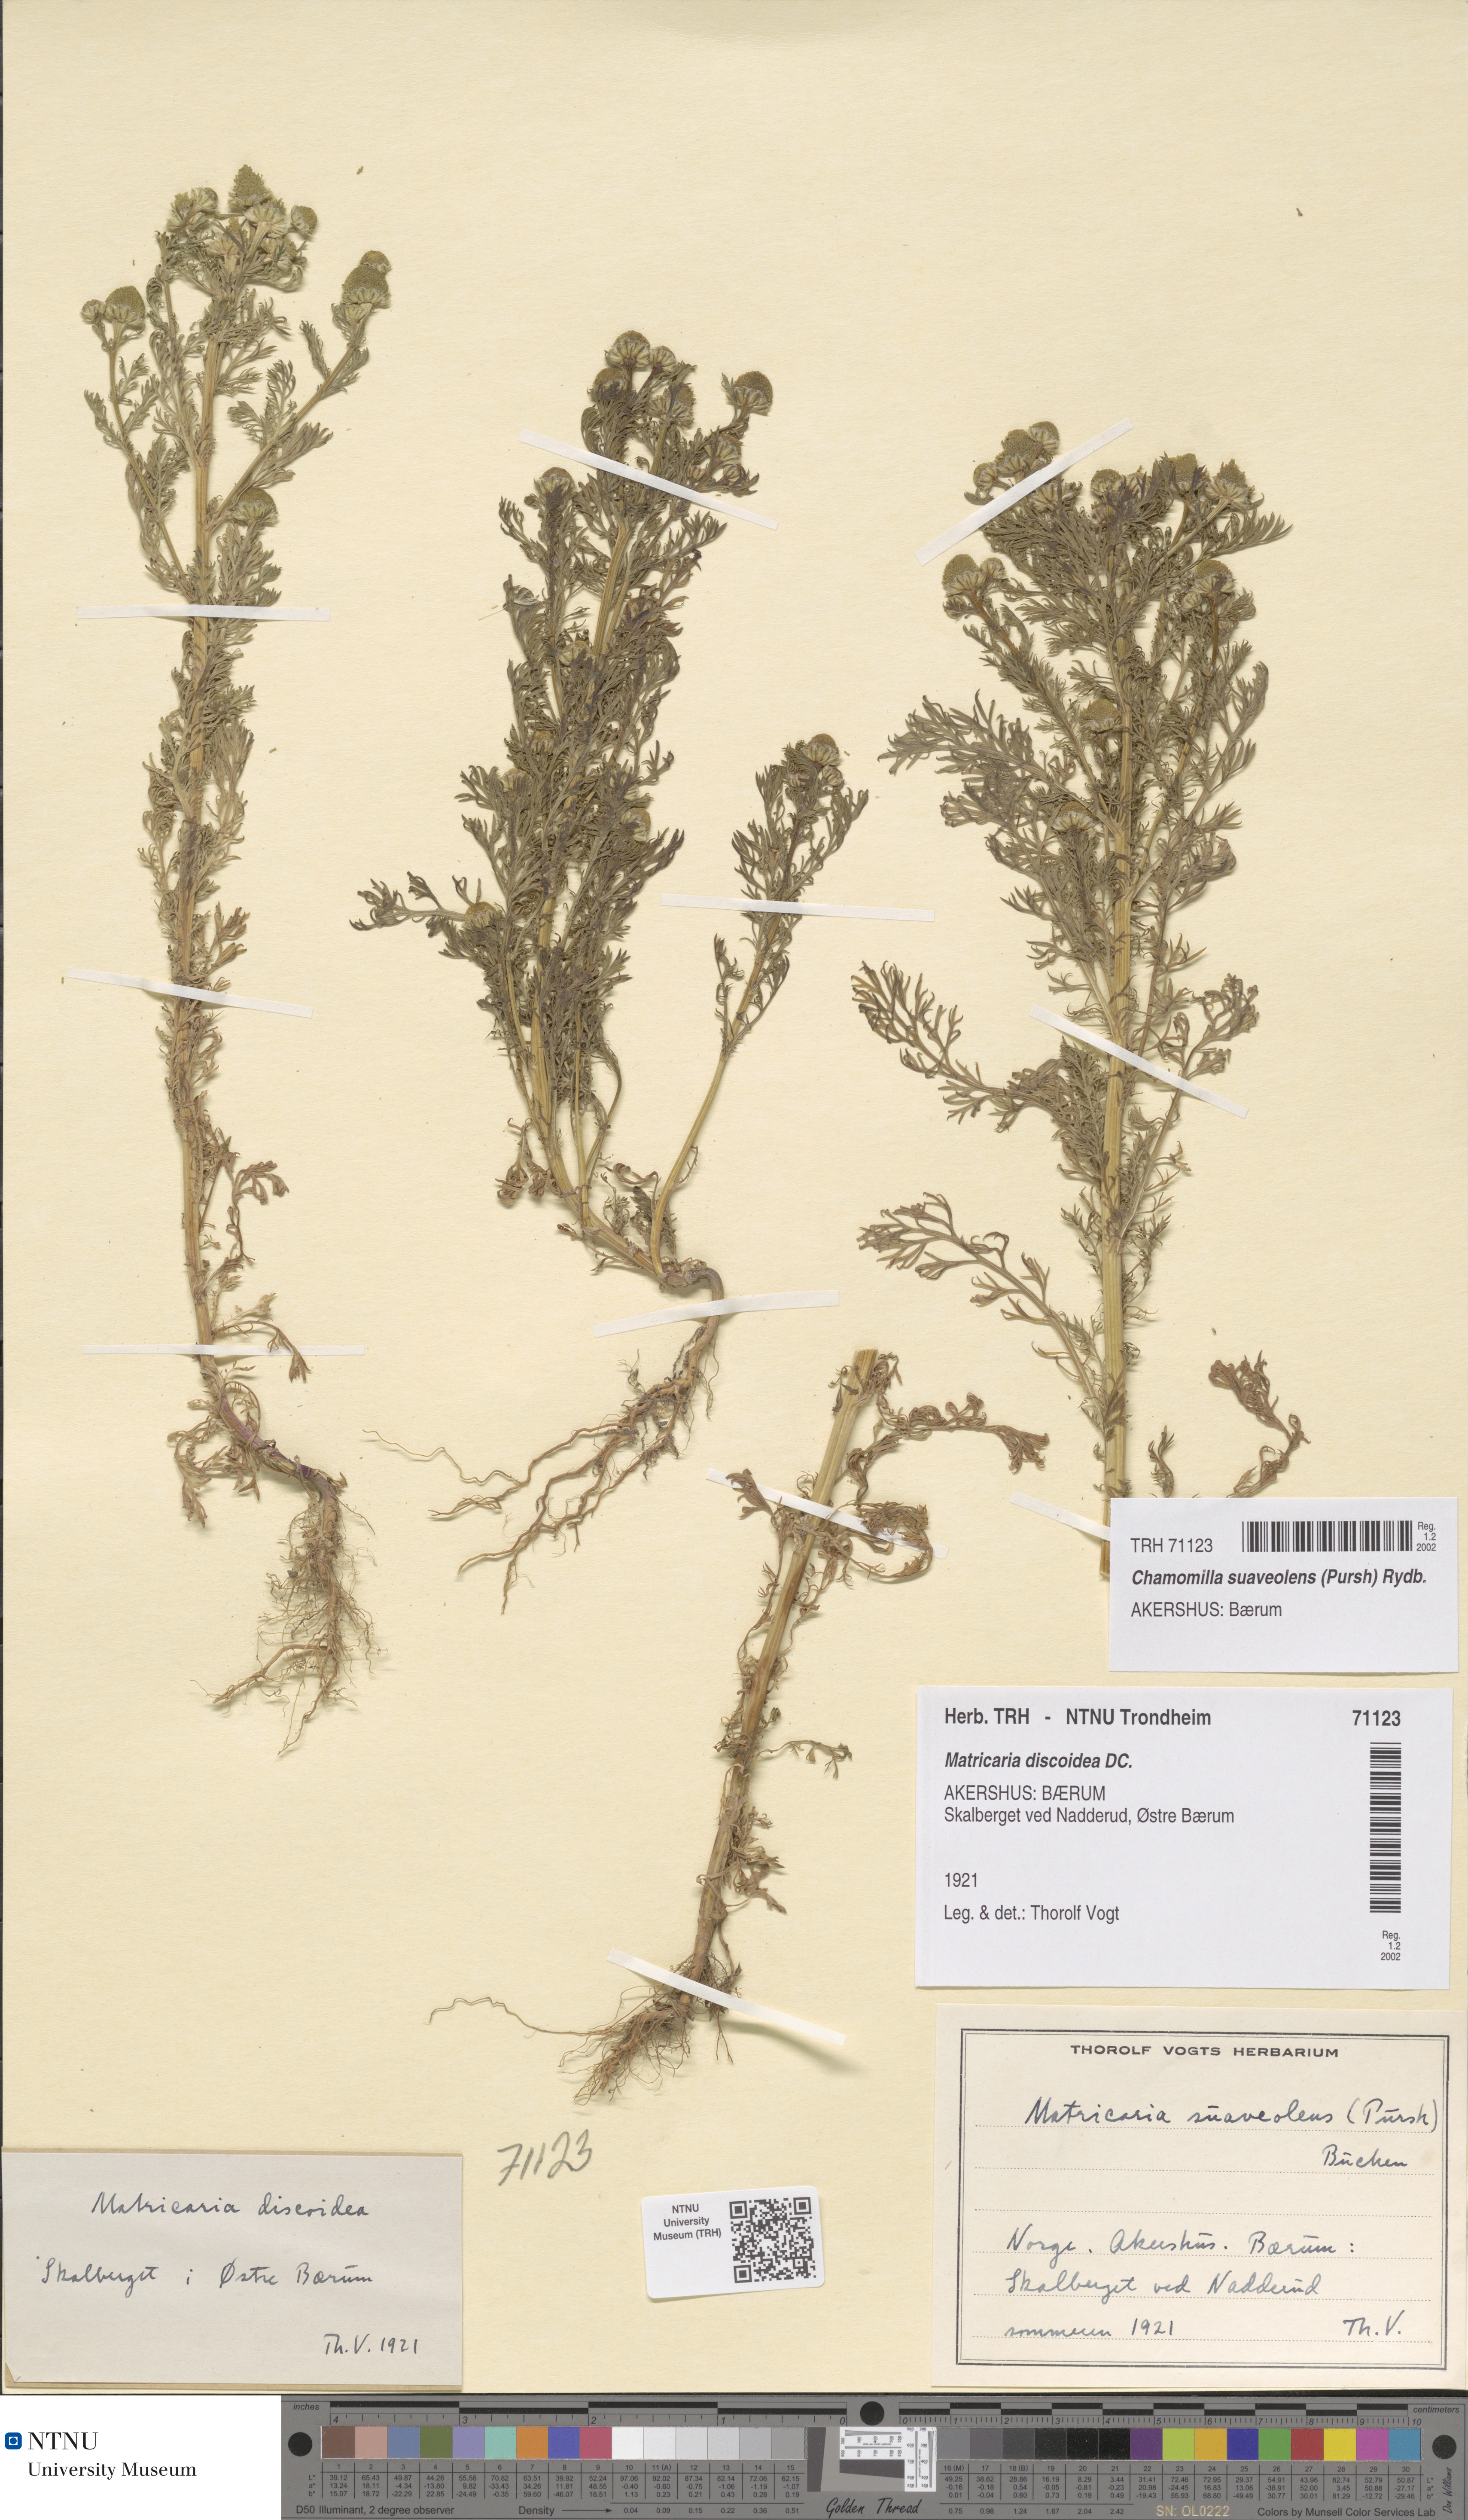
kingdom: Plantae
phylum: Tracheophyta
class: Magnoliopsida
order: Asterales
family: Asteraceae
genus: Matricaria
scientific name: Matricaria discoidea
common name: Disc mayweed
